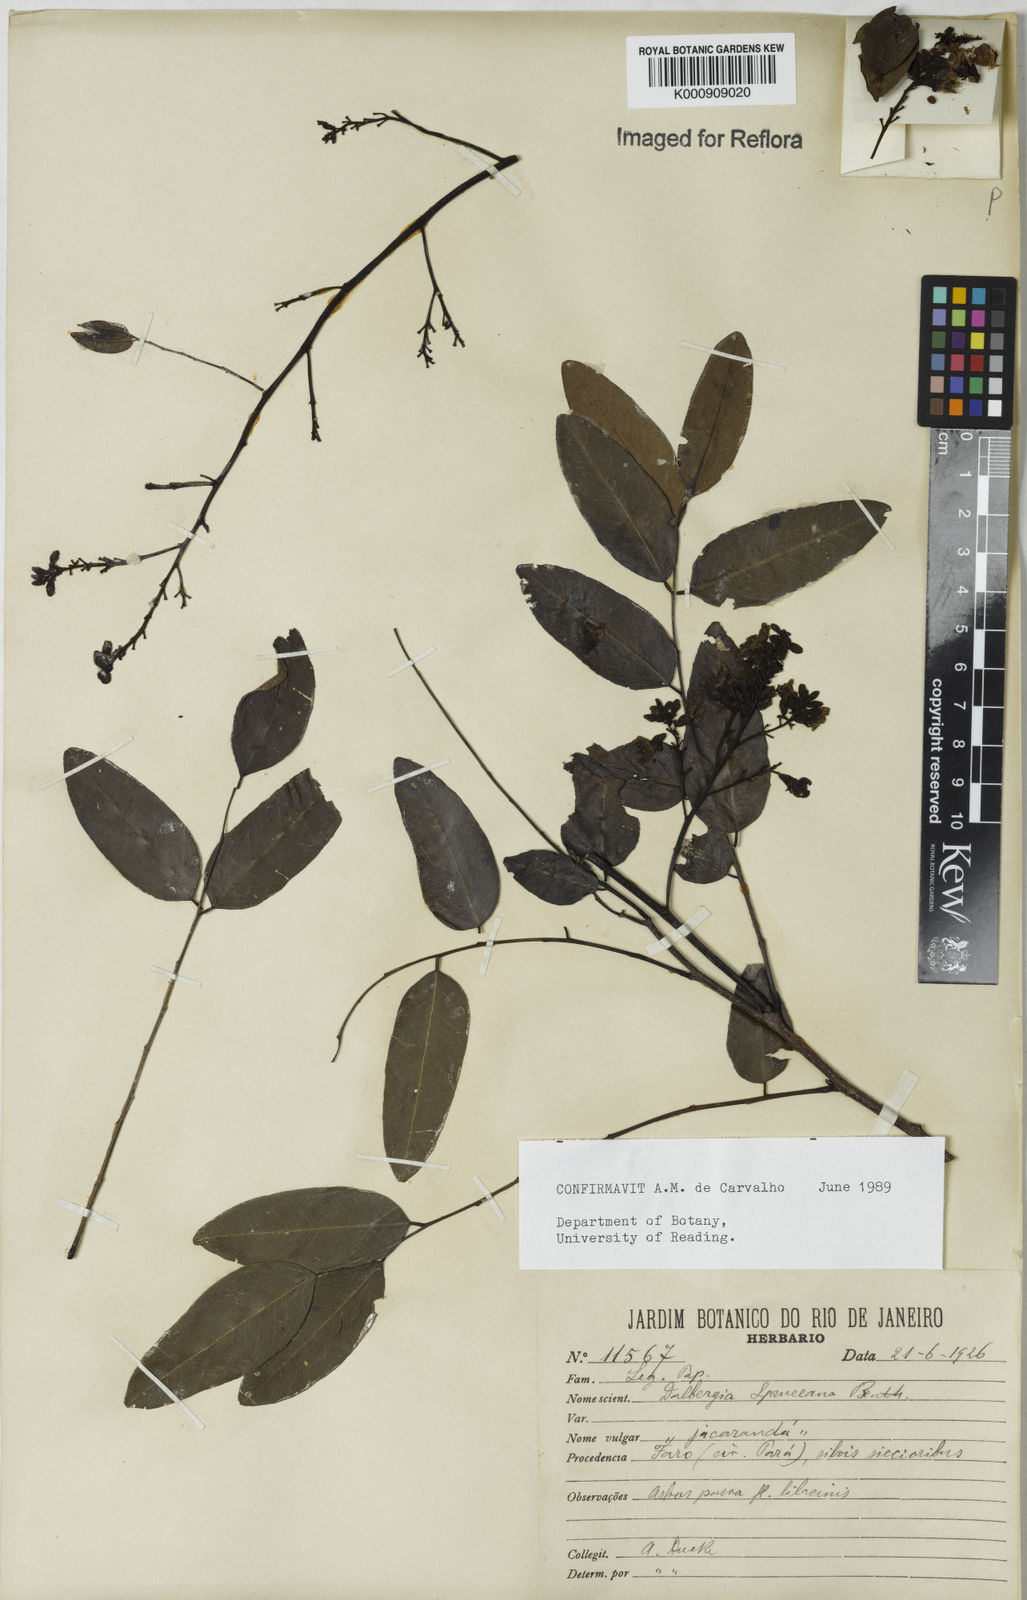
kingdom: Plantae
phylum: Tracheophyta
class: Magnoliopsida
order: Fabales
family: Fabaceae
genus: Dalbergia
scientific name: Dalbergia spruceana
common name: Amazon rosewood
